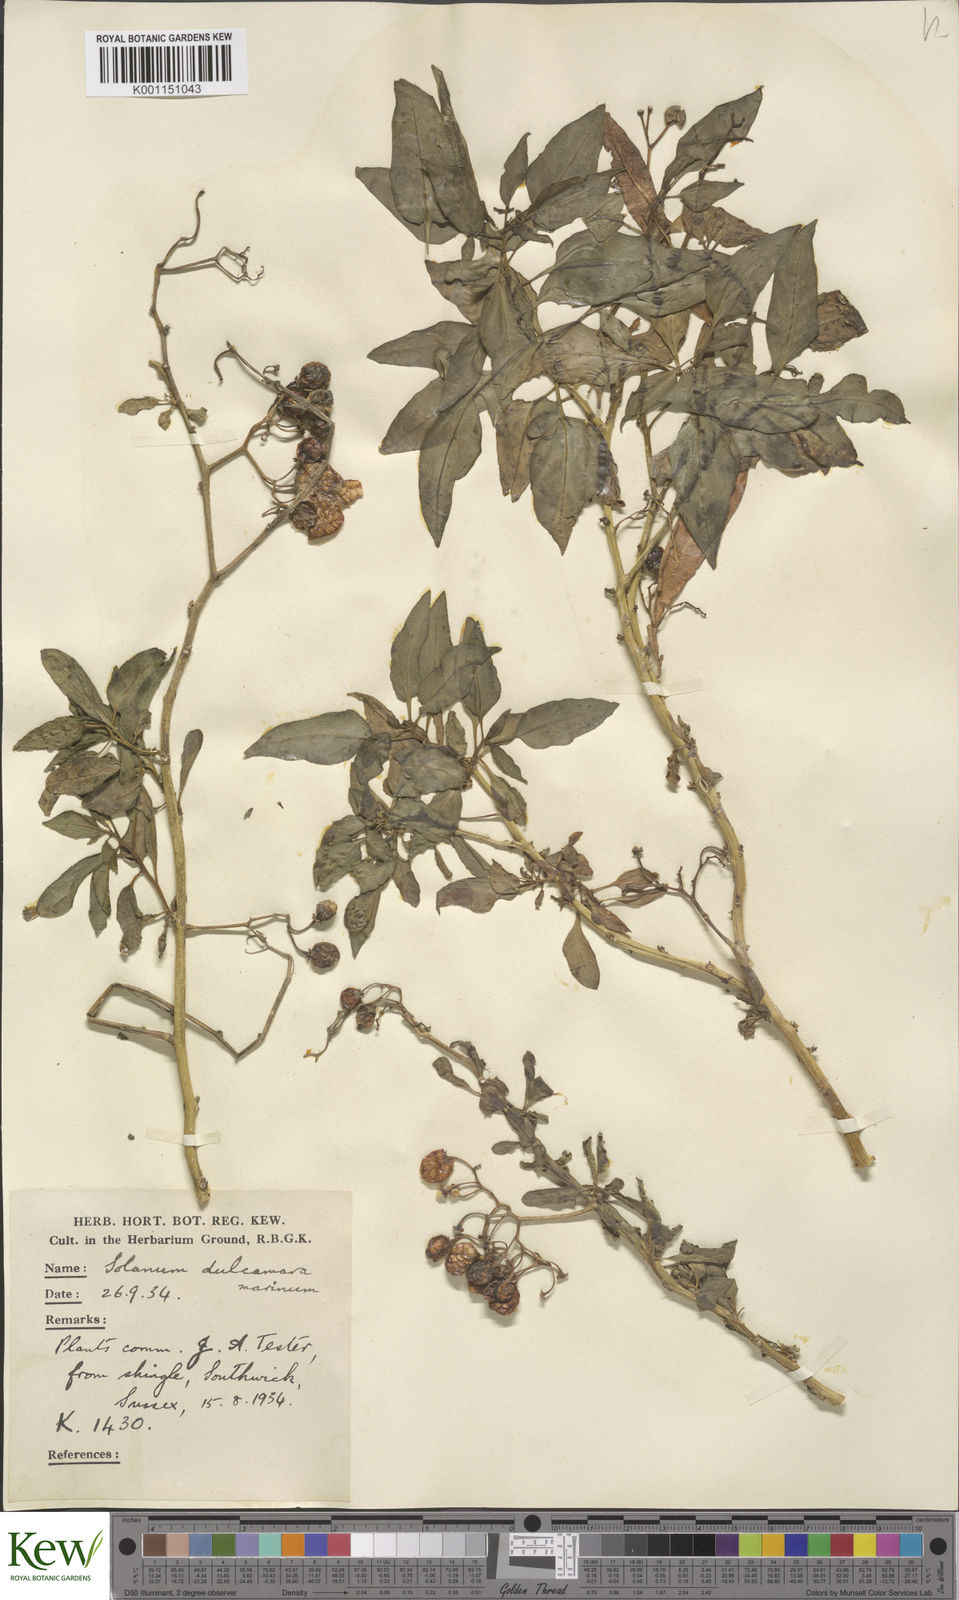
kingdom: Plantae
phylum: Tracheophyta
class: Magnoliopsida
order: Solanales
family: Solanaceae
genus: Solanum
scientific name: Solanum dulcamara
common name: Climbing nightshade
